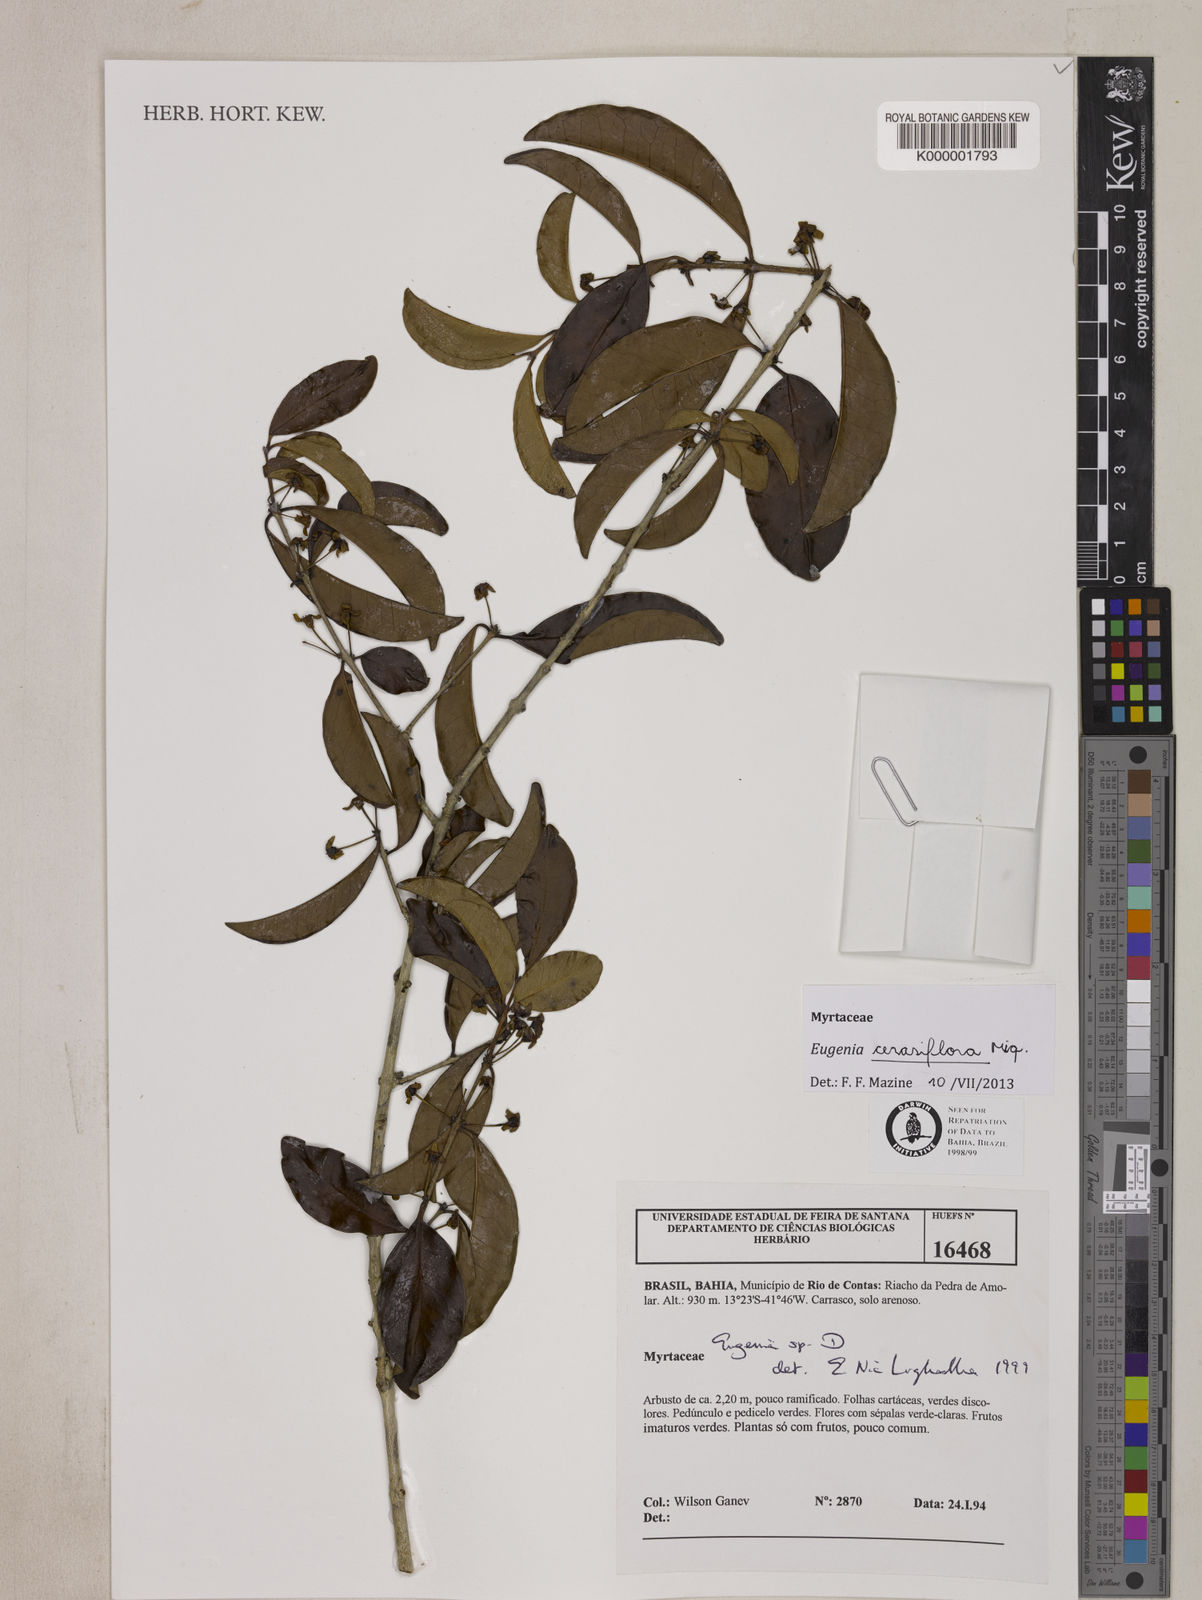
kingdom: Plantae
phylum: Tracheophyta
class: Magnoliopsida
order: Myrtales
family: Myrtaceae
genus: Eugenia
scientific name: Eugenia
